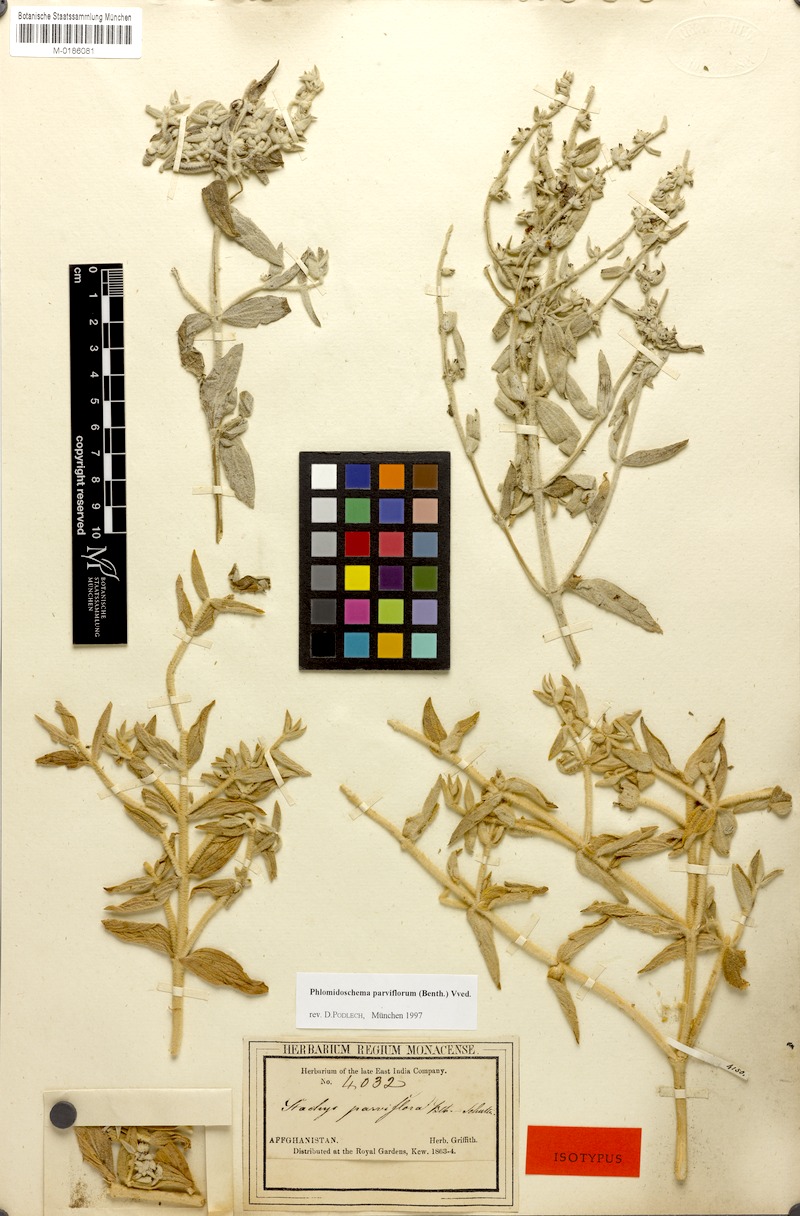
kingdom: Plantae
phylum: Tracheophyta
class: Magnoliopsida
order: Lamiales
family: Lamiaceae
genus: Phlomidoschema
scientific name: Phlomidoschema parviflorum
